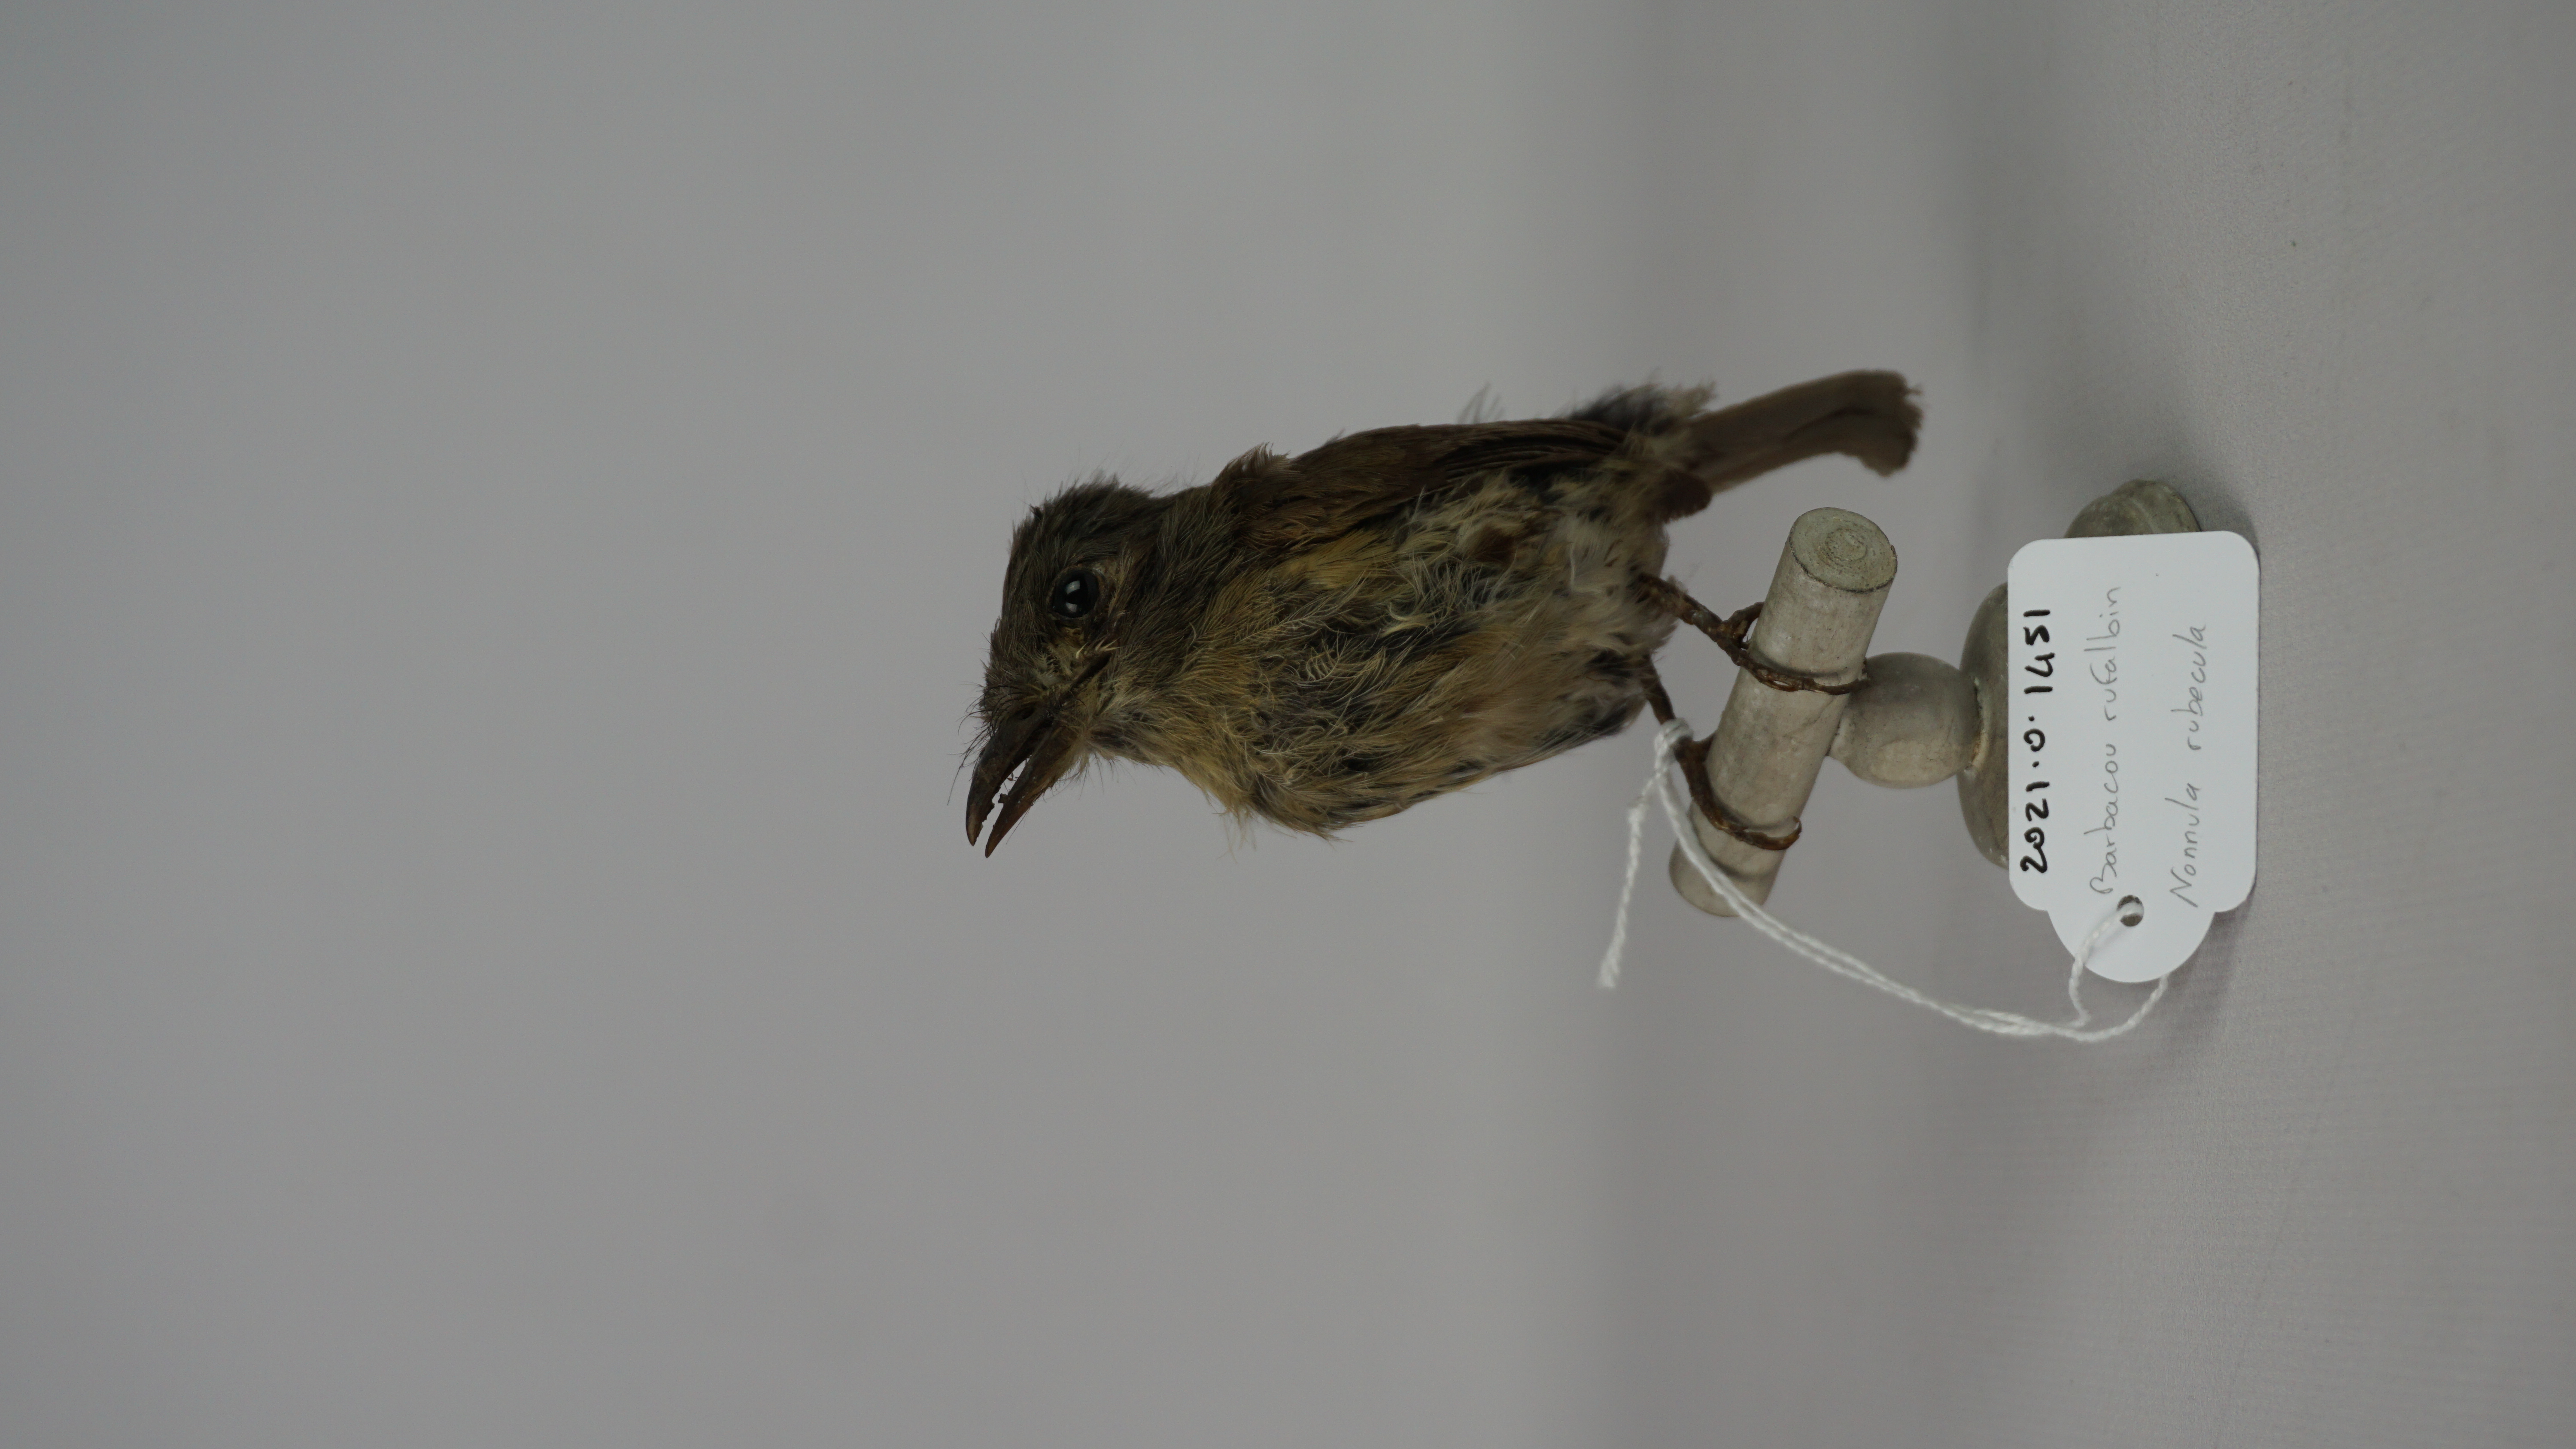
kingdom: Animalia
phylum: Chordata
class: Aves
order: Piciformes
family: Bucconidae
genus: Nonnula
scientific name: Nonnula rubecula
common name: Rusty-breasted nunlet
